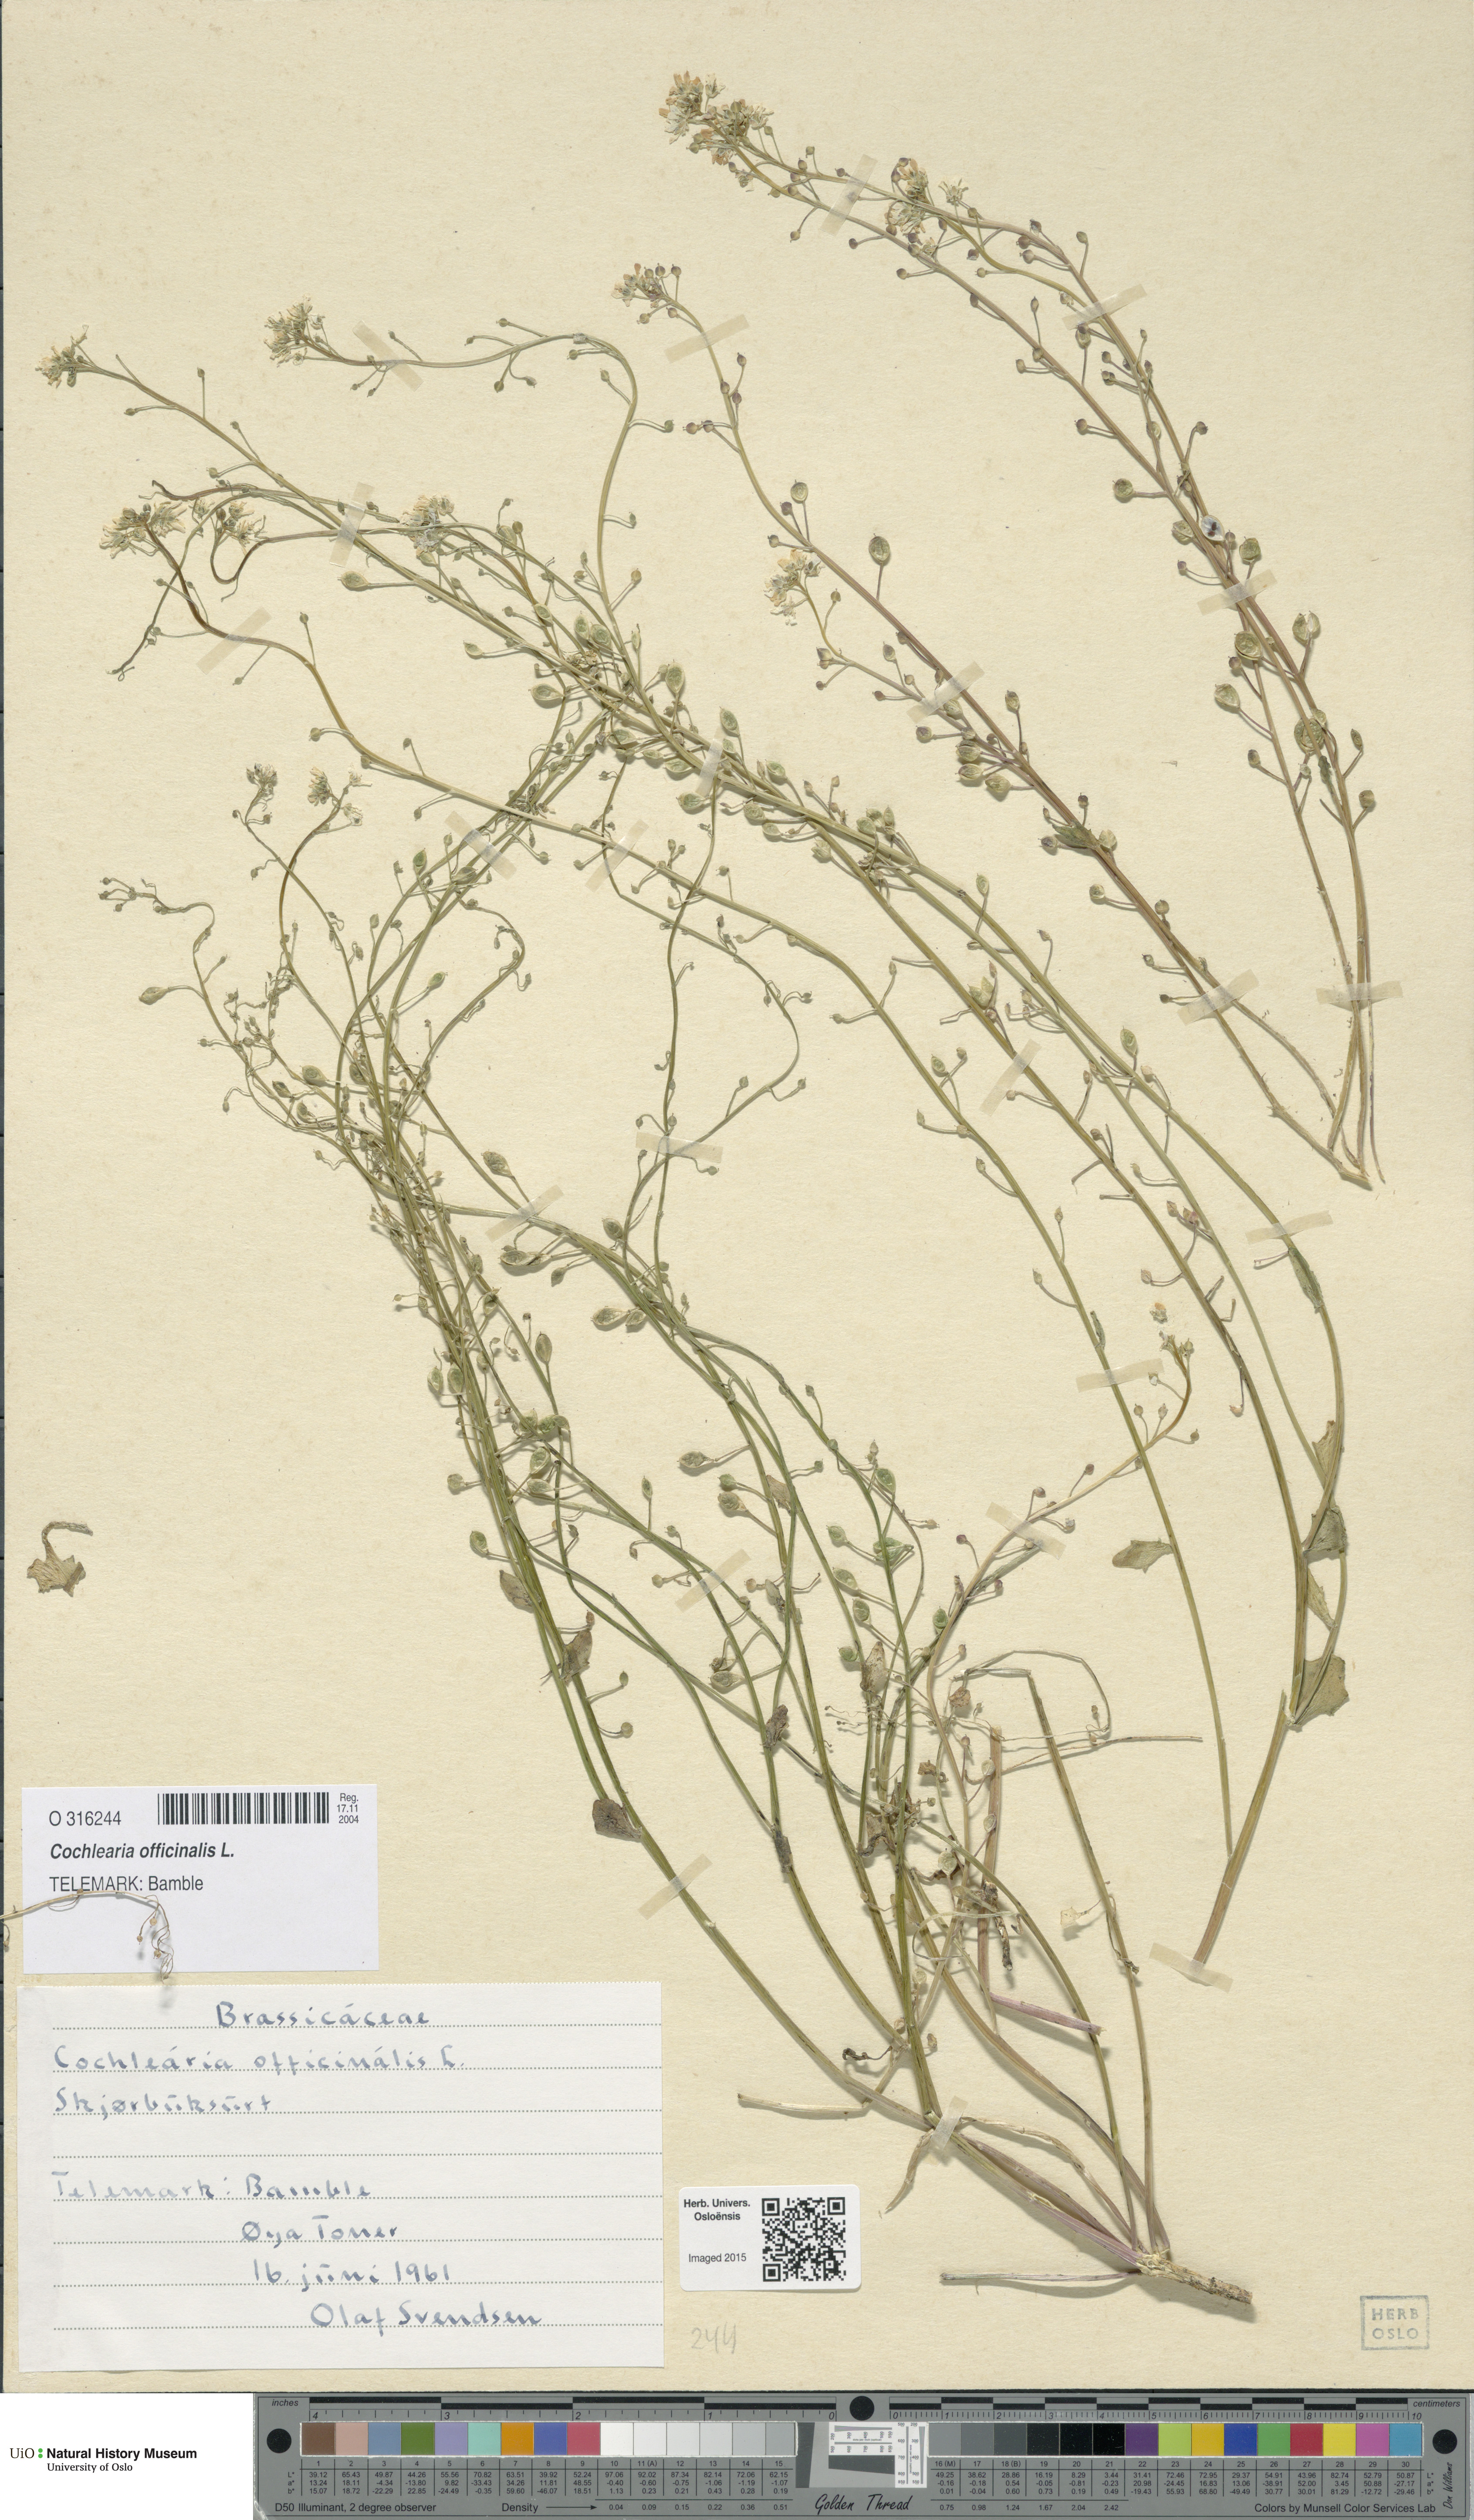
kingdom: Plantae
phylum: Tracheophyta
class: Magnoliopsida
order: Brassicales
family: Brassicaceae
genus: Cochlearia
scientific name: Cochlearia officinalis
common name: Scurvy-grass
